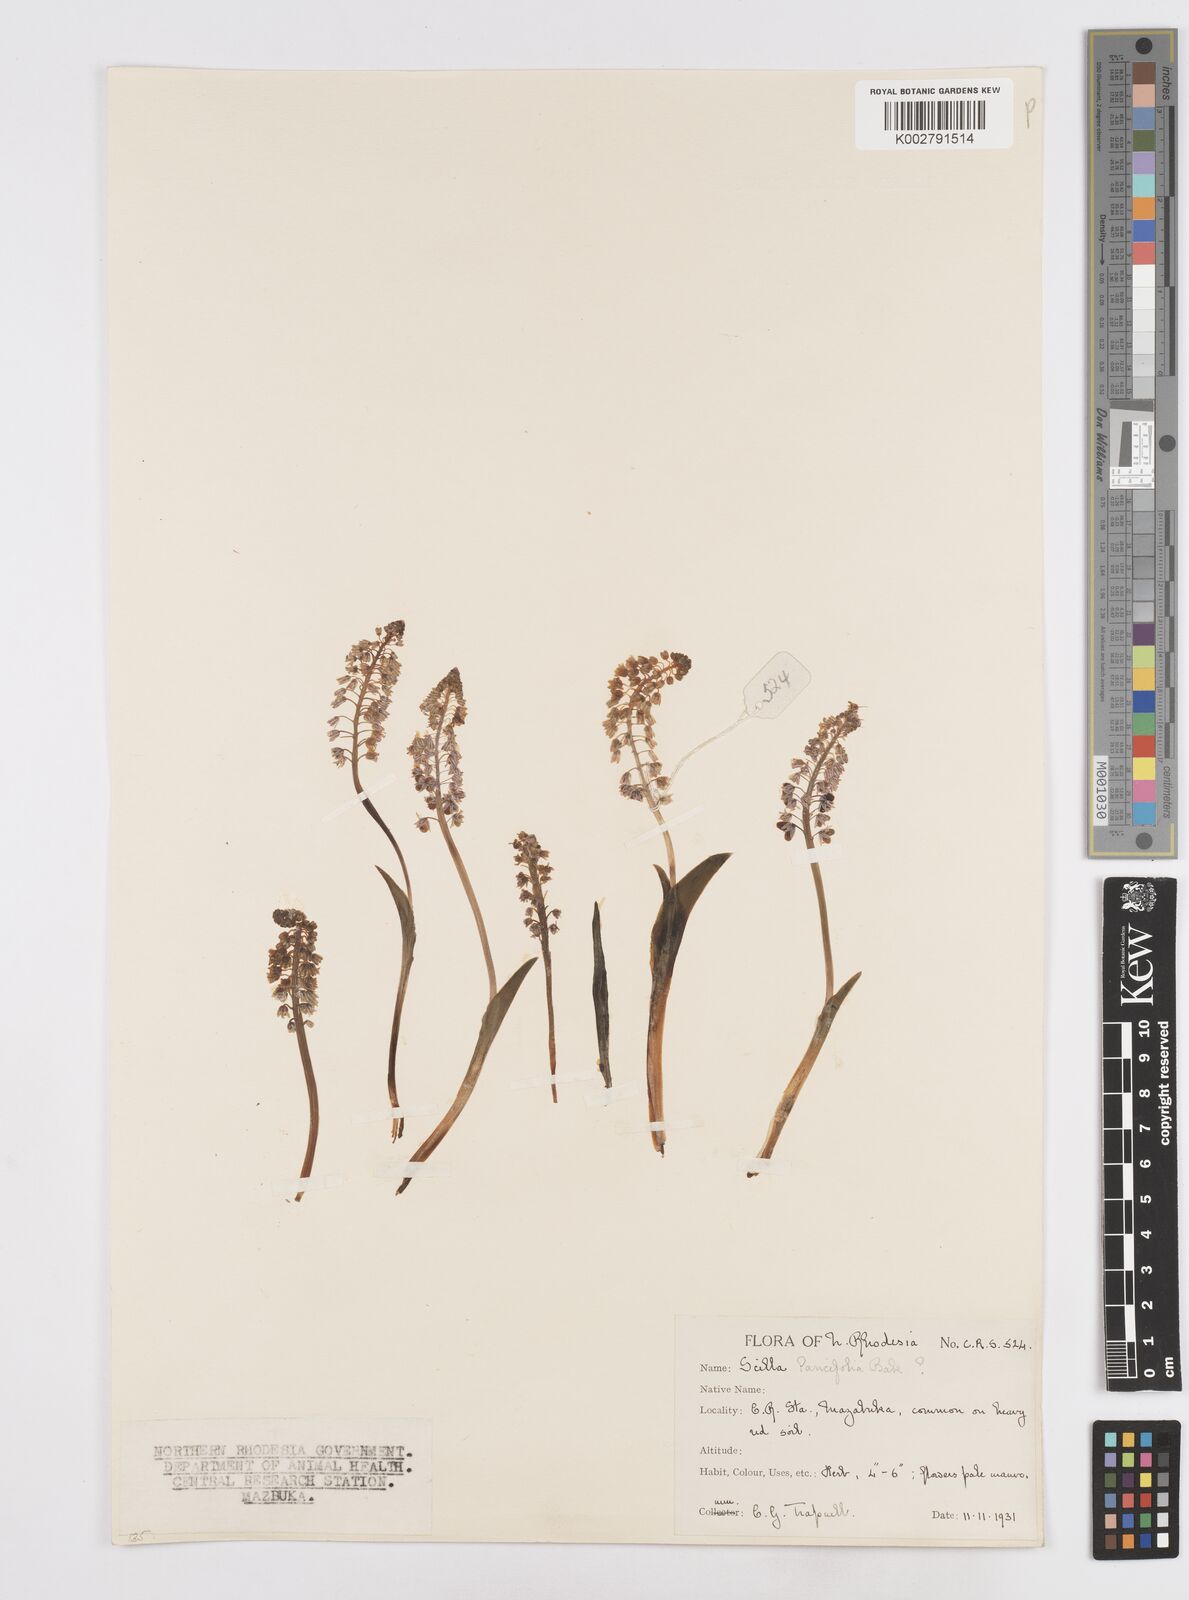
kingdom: Plantae
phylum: Tracheophyta
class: Liliopsida
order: Asparagales
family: Asparagaceae
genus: Scilla
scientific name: Scilla
